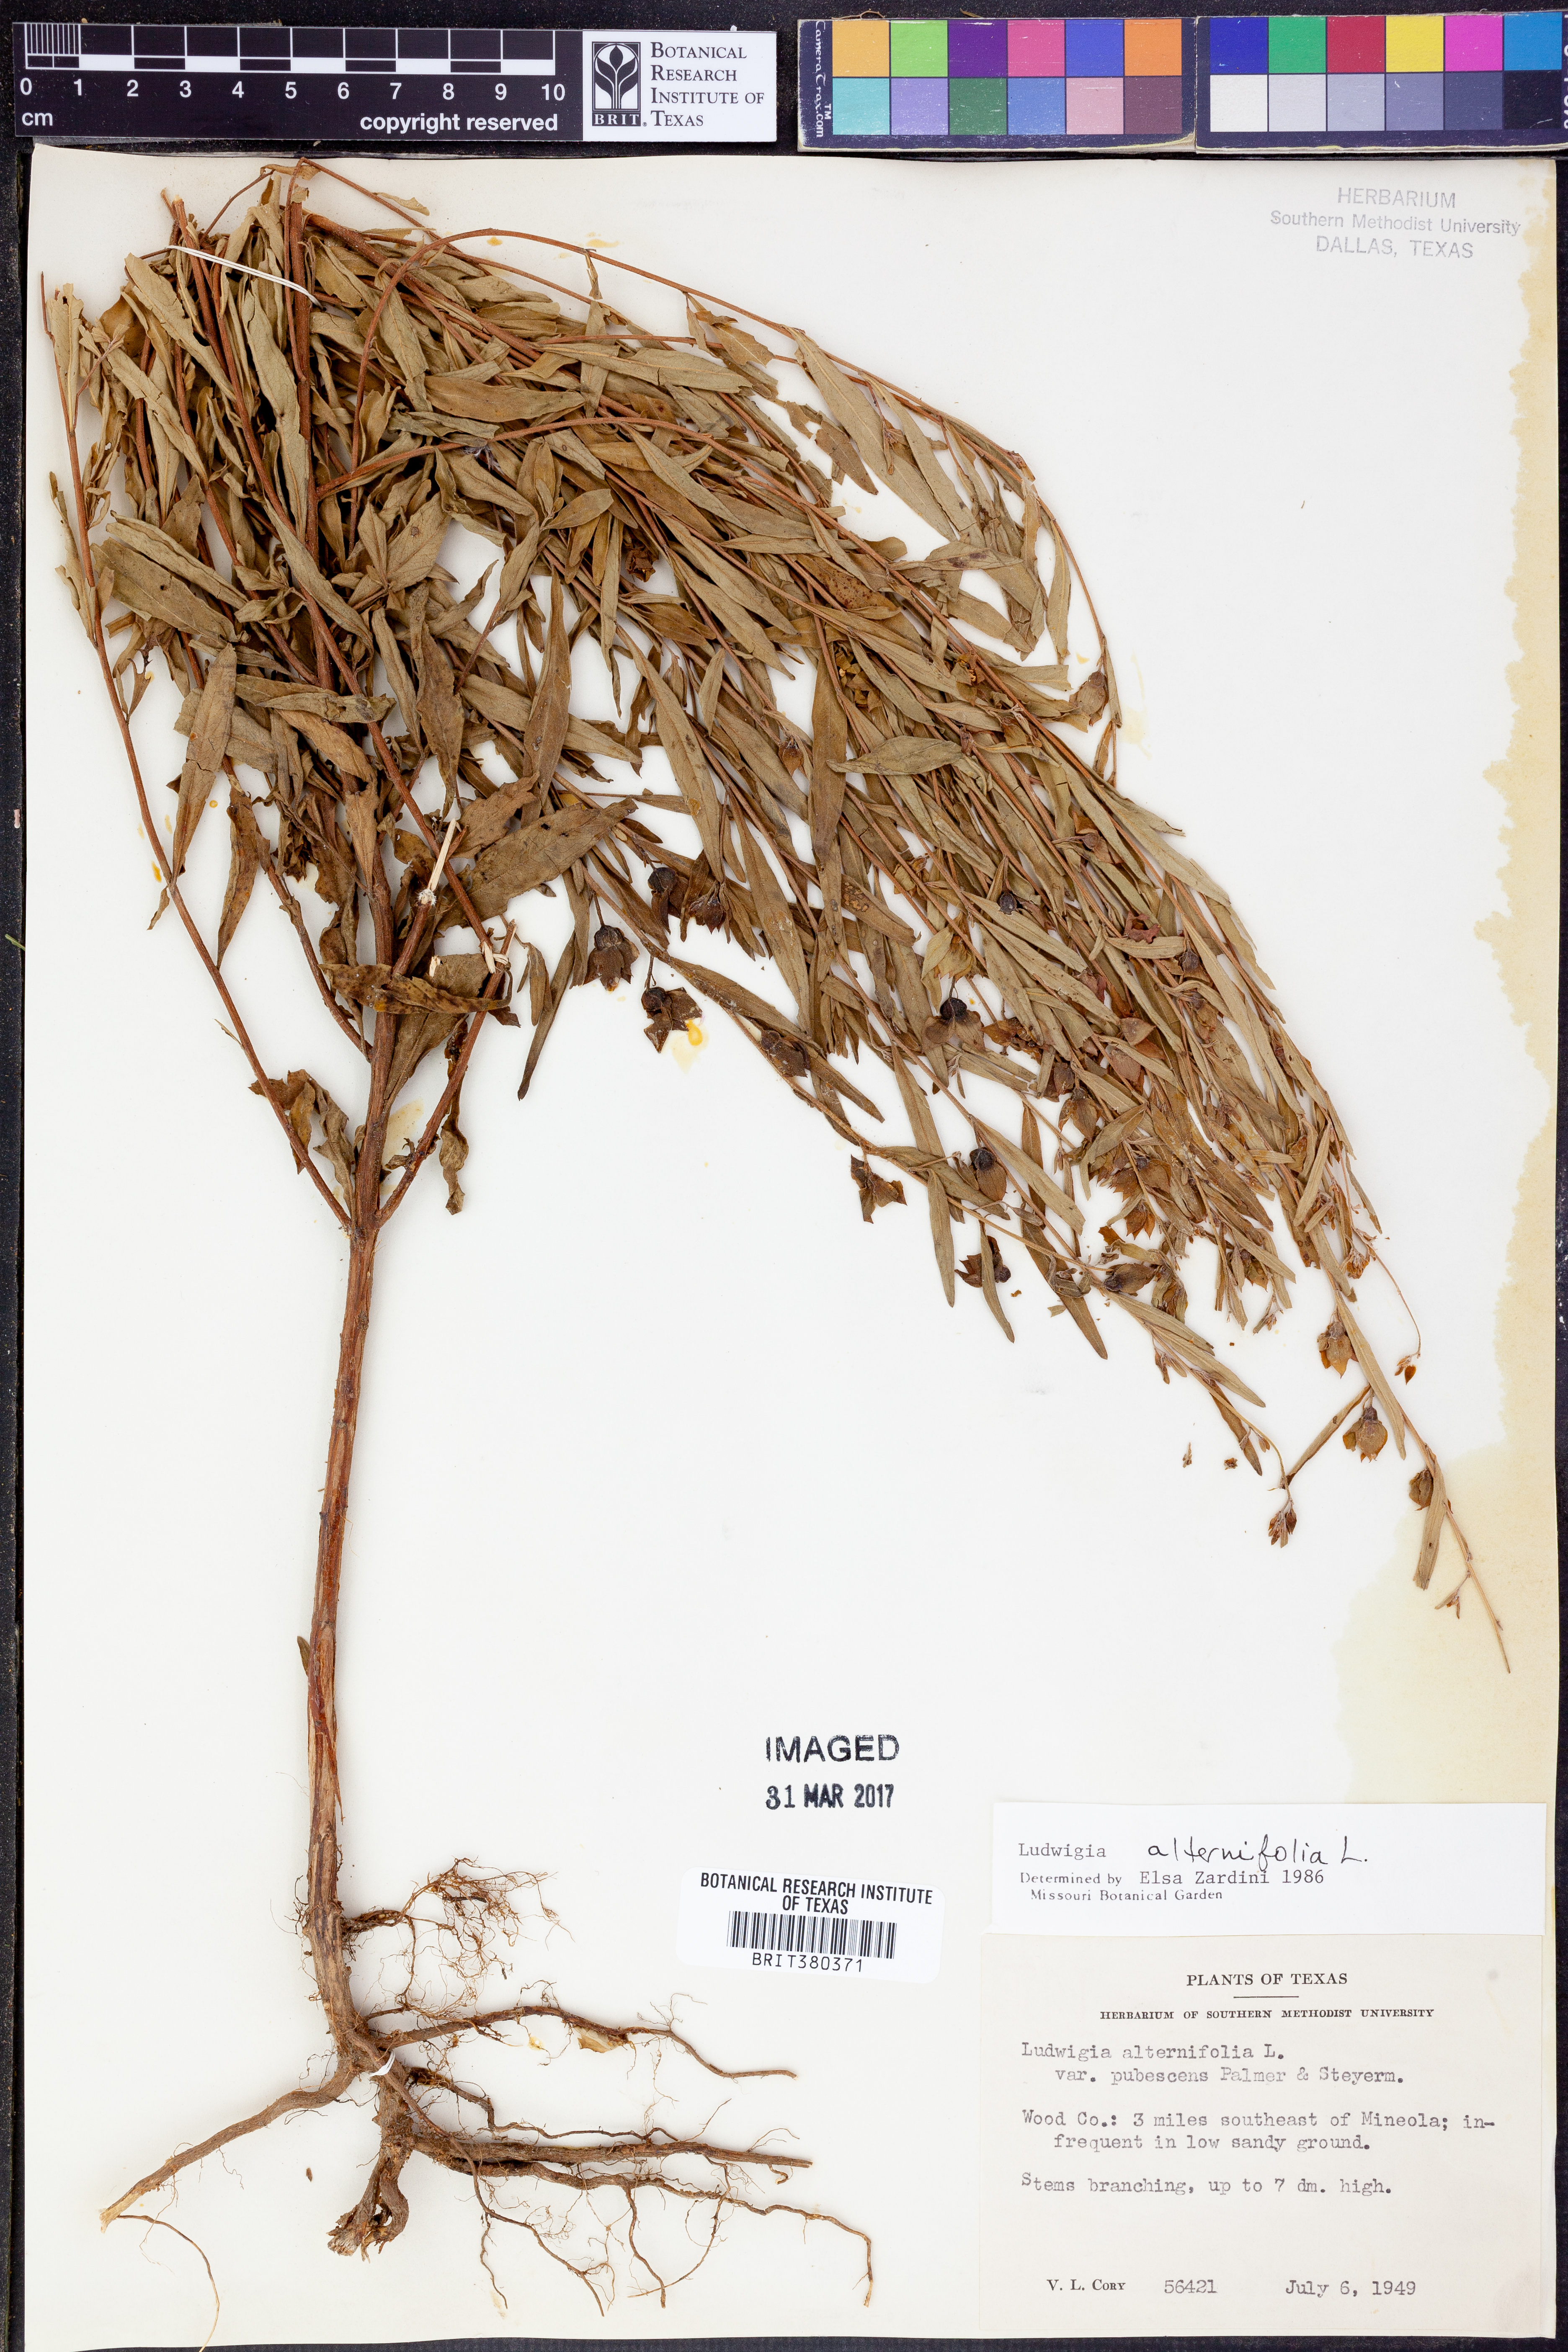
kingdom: Plantae
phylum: Tracheophyta
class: Magnoliopsida
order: Myrtales
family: Onagraceae
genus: Ludwigia
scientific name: Ludwigia alternifolia
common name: Rattlebox
